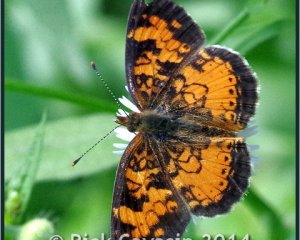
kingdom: Animalia
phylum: Arthropoda
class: Insecta
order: Lepidoptera
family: Nymphalidae
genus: Phyciodes
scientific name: Phyciodes tharos
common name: Northern Crescent
